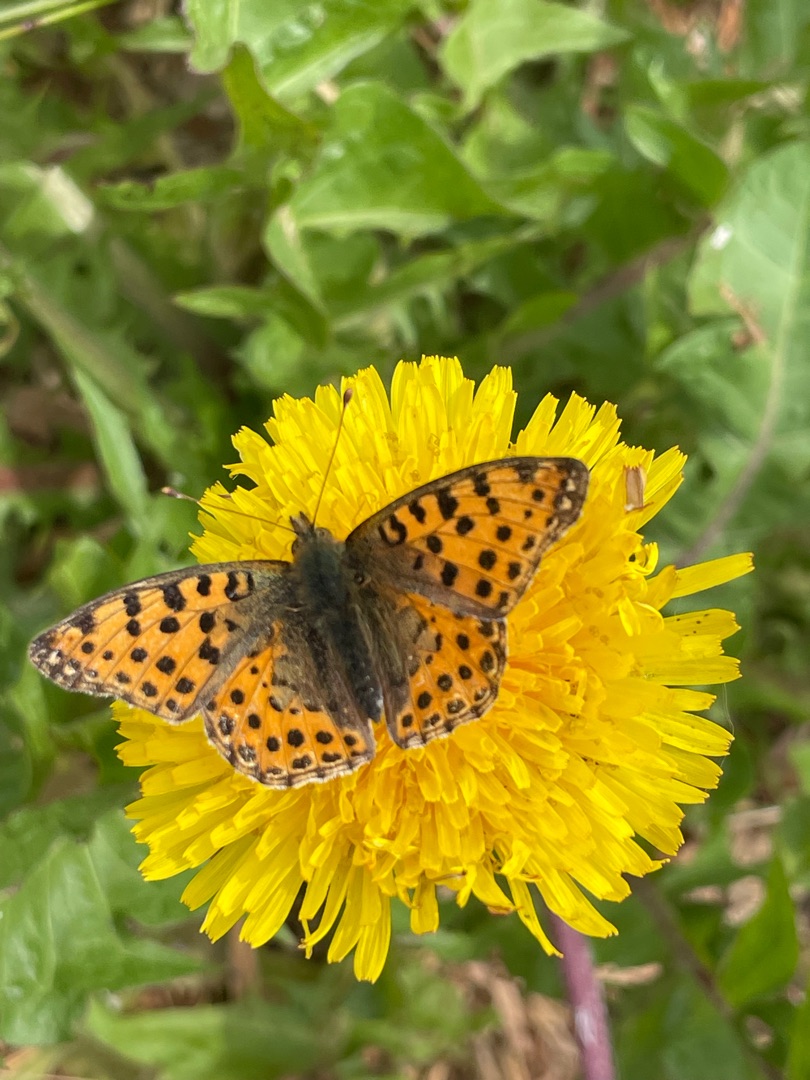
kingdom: Animalia
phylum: Arthropoda
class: Insecta
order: Lepidoptera
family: Nymphalidae
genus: Issoria
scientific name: Issoria lathonia
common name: Storplettet perlemorsommerfugl
